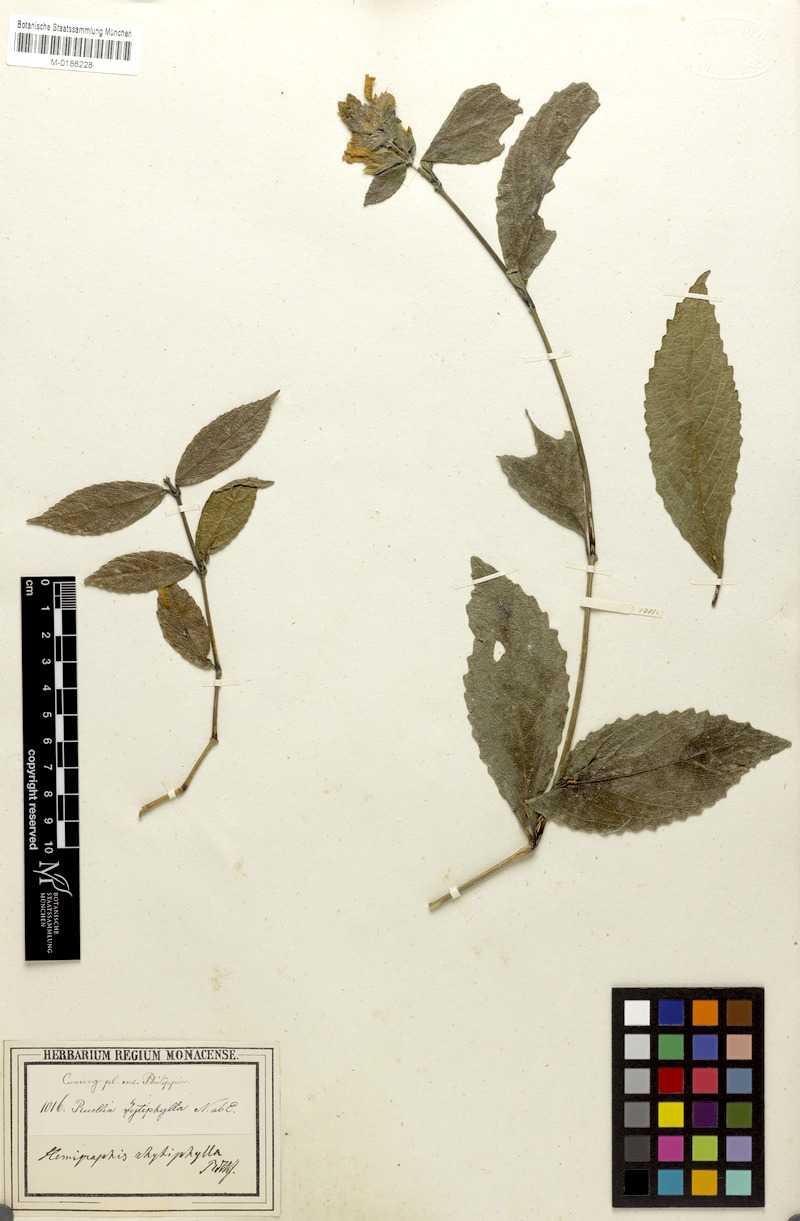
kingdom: Plantae
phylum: Tracheophyta
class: Magnoliopsida
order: Lamiales
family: Acanthaceae
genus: Strobilanthes
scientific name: Strobilanthes rhytiphylla
